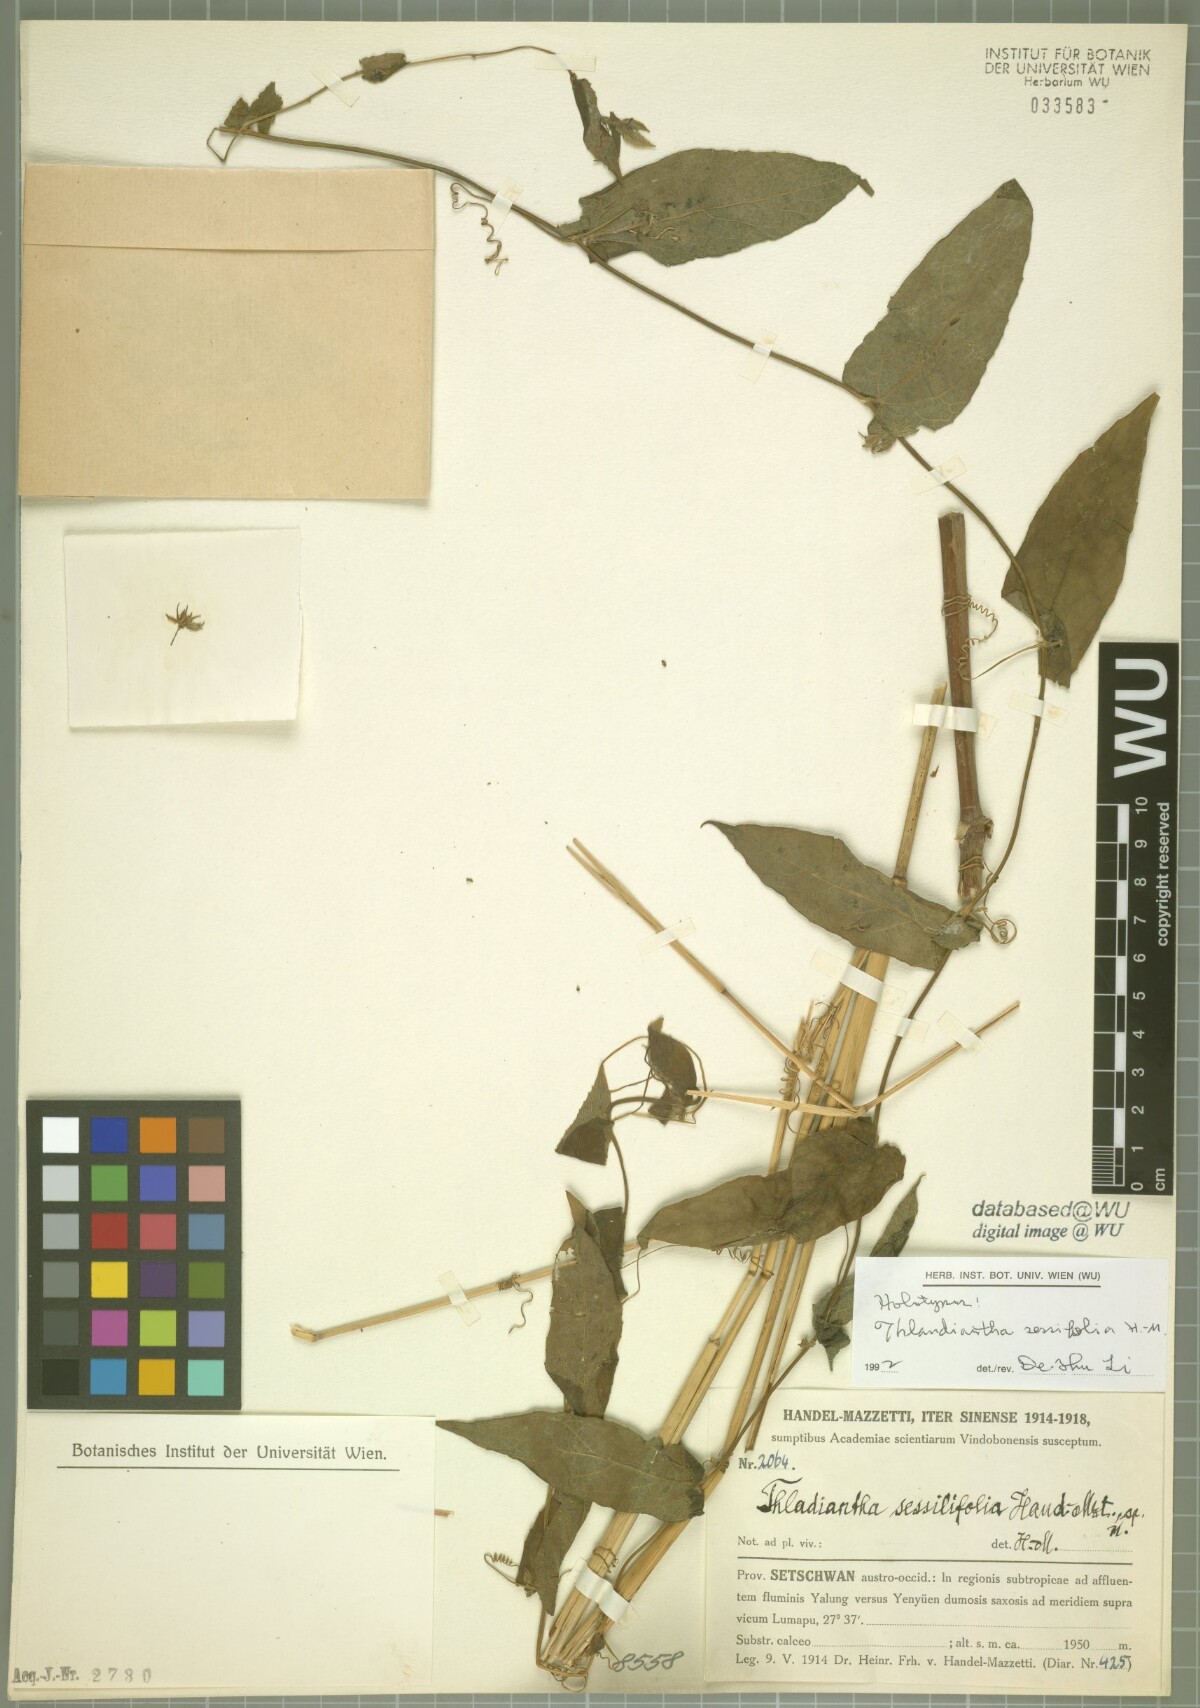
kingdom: Plantae
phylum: Tracheophyta
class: Magnoliopsida
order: Cucurbitales
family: Cucurbitaceae
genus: Thladiantha
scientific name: Thladiantha sessilifolia
